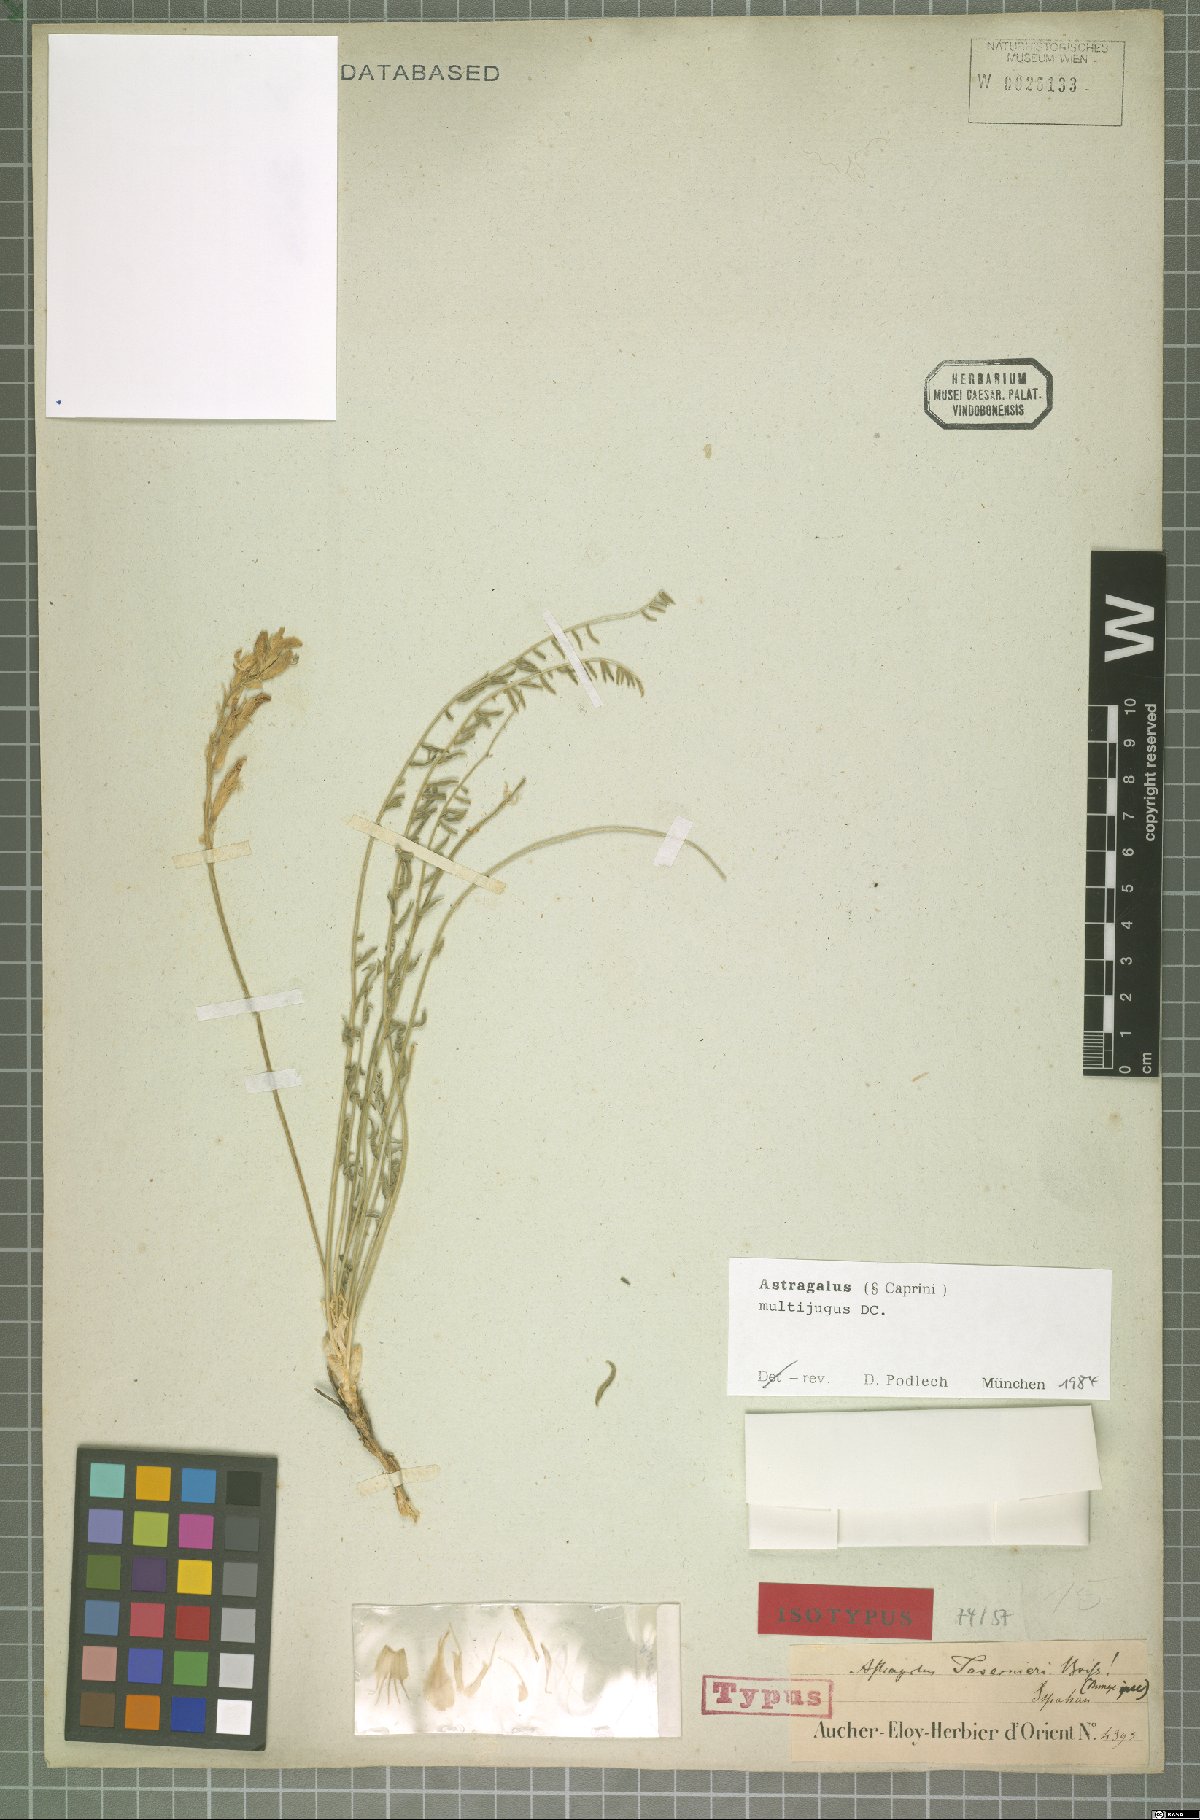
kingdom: Plantae
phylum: Tracheophyta
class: Magnoliopsida
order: Fabales
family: Fabaceae
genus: Astragalus
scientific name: Astragalus multijugus
